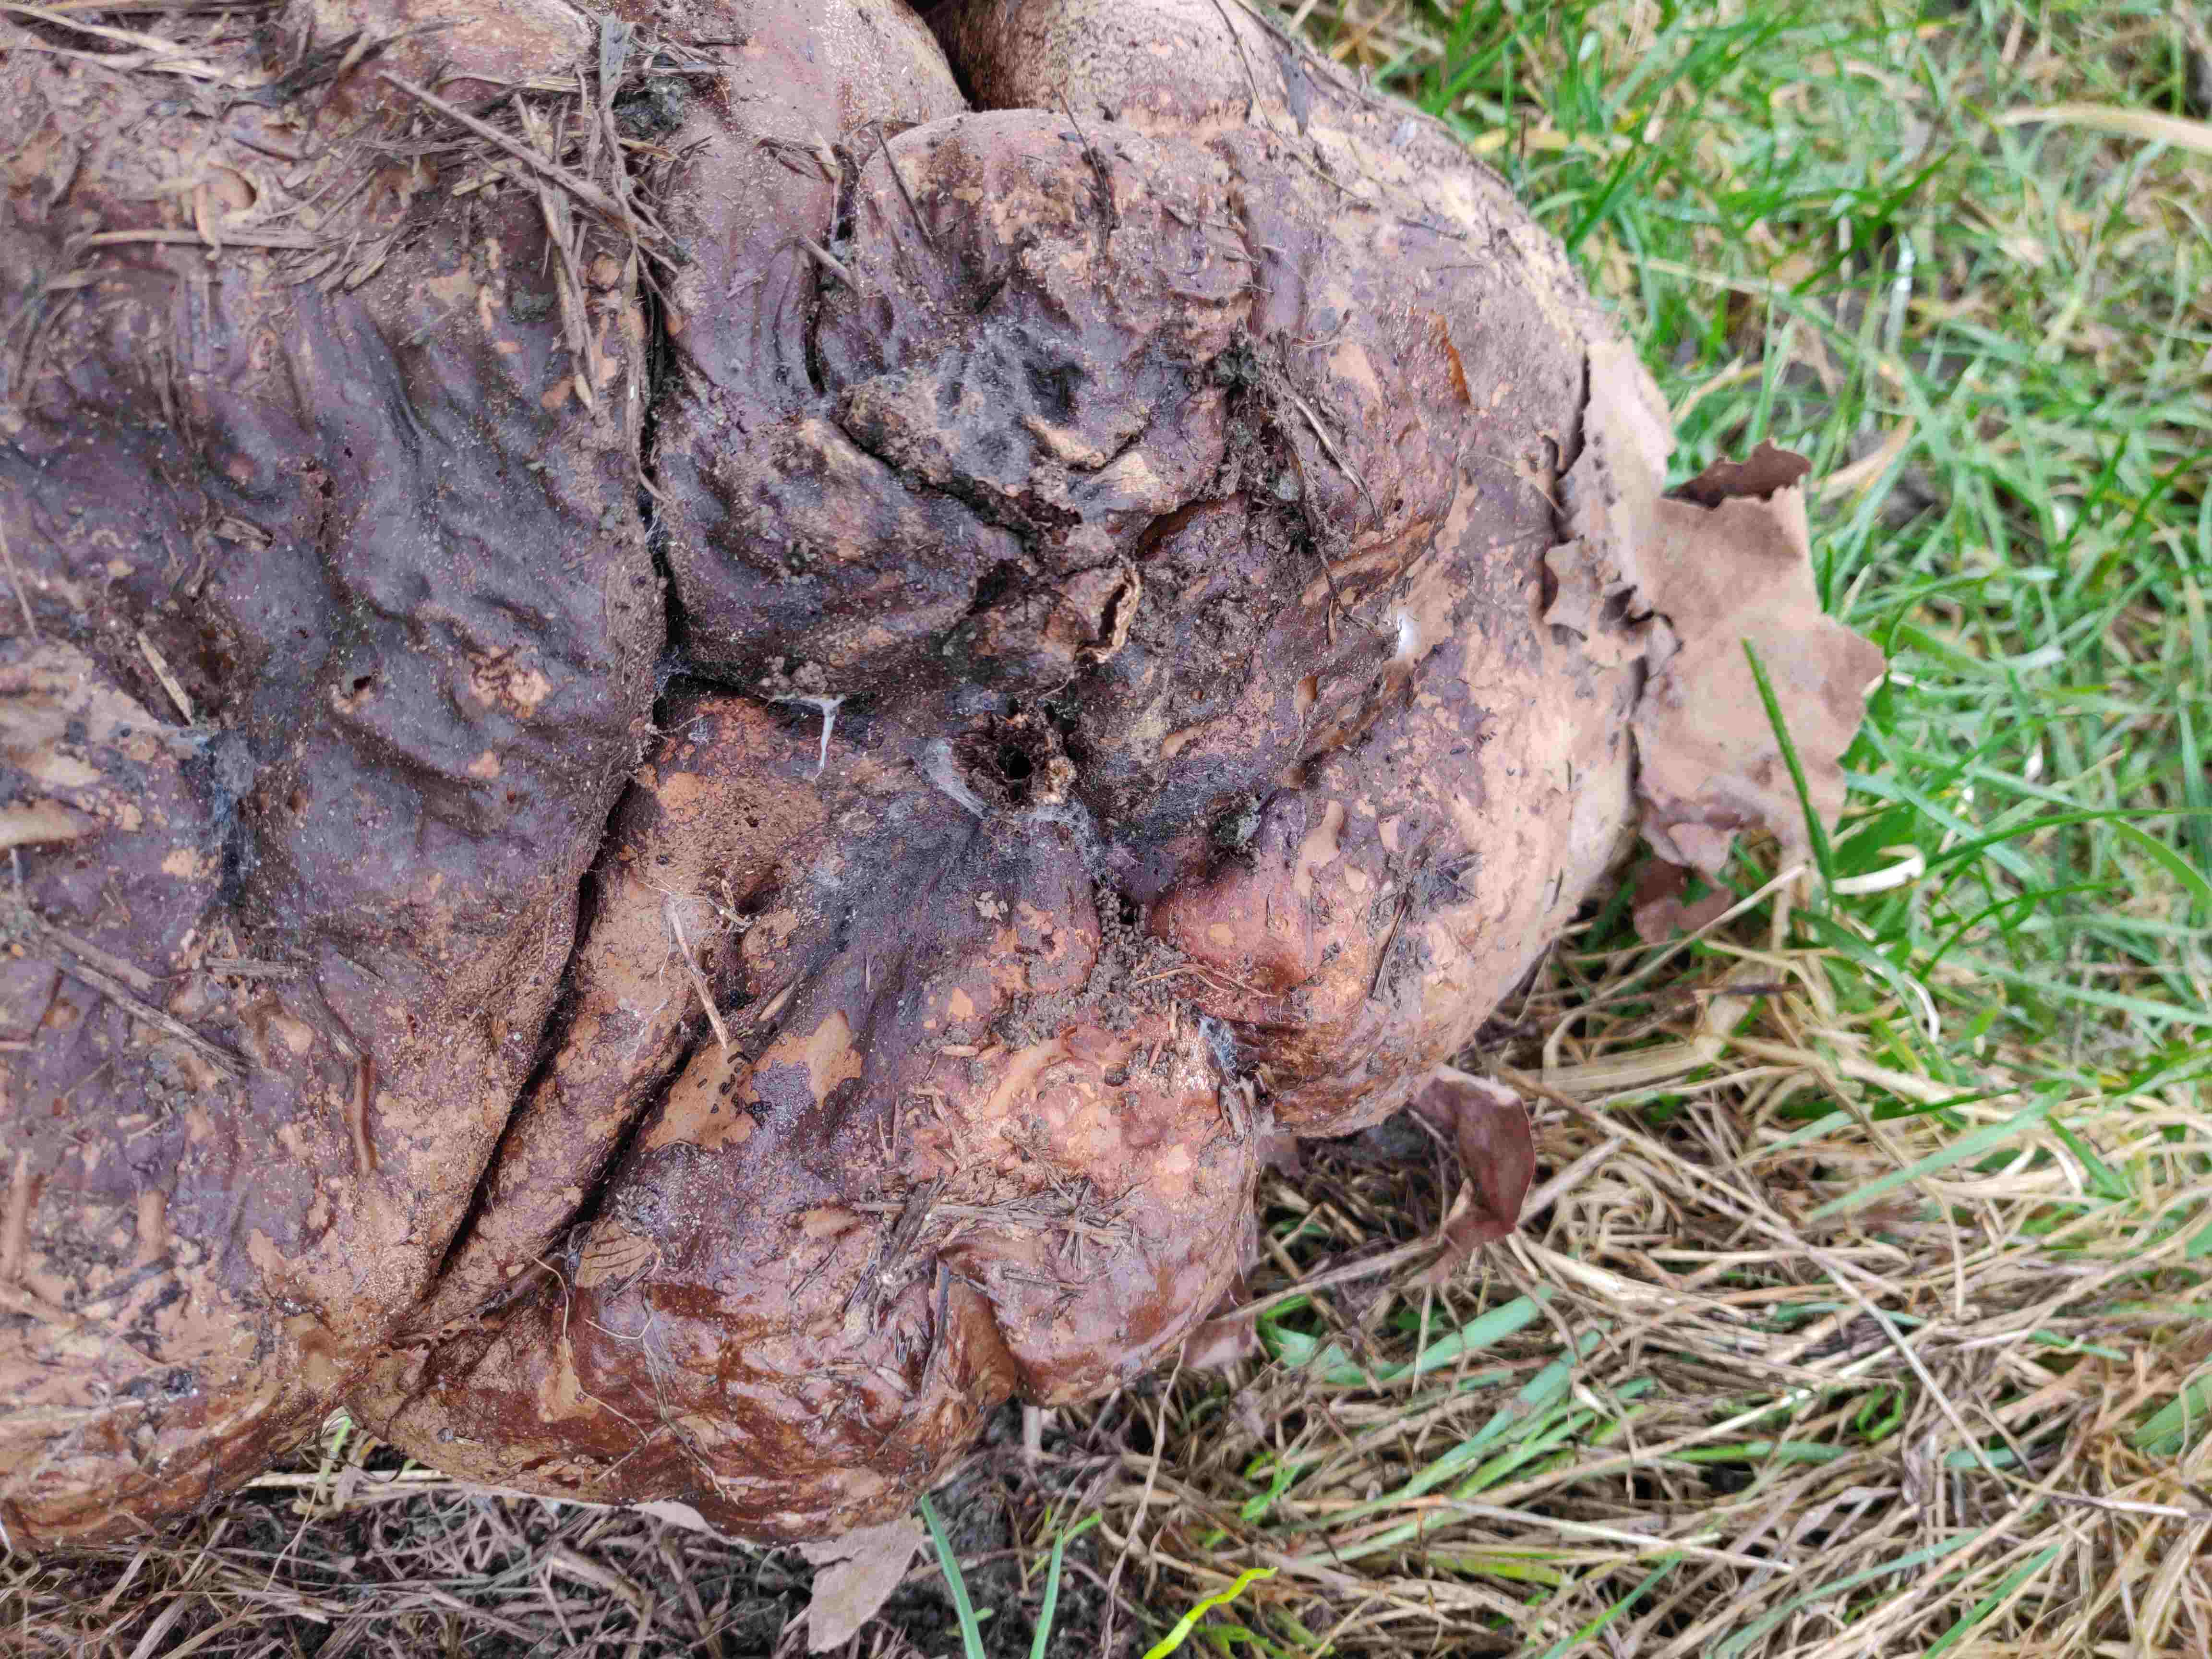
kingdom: Fungi
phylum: Basidiomycota
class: Agaricomycetes
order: Agaricales
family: Lycoperdaceae
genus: Calvatia
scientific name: Calvatia gigantea
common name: kæmpestøvbold
